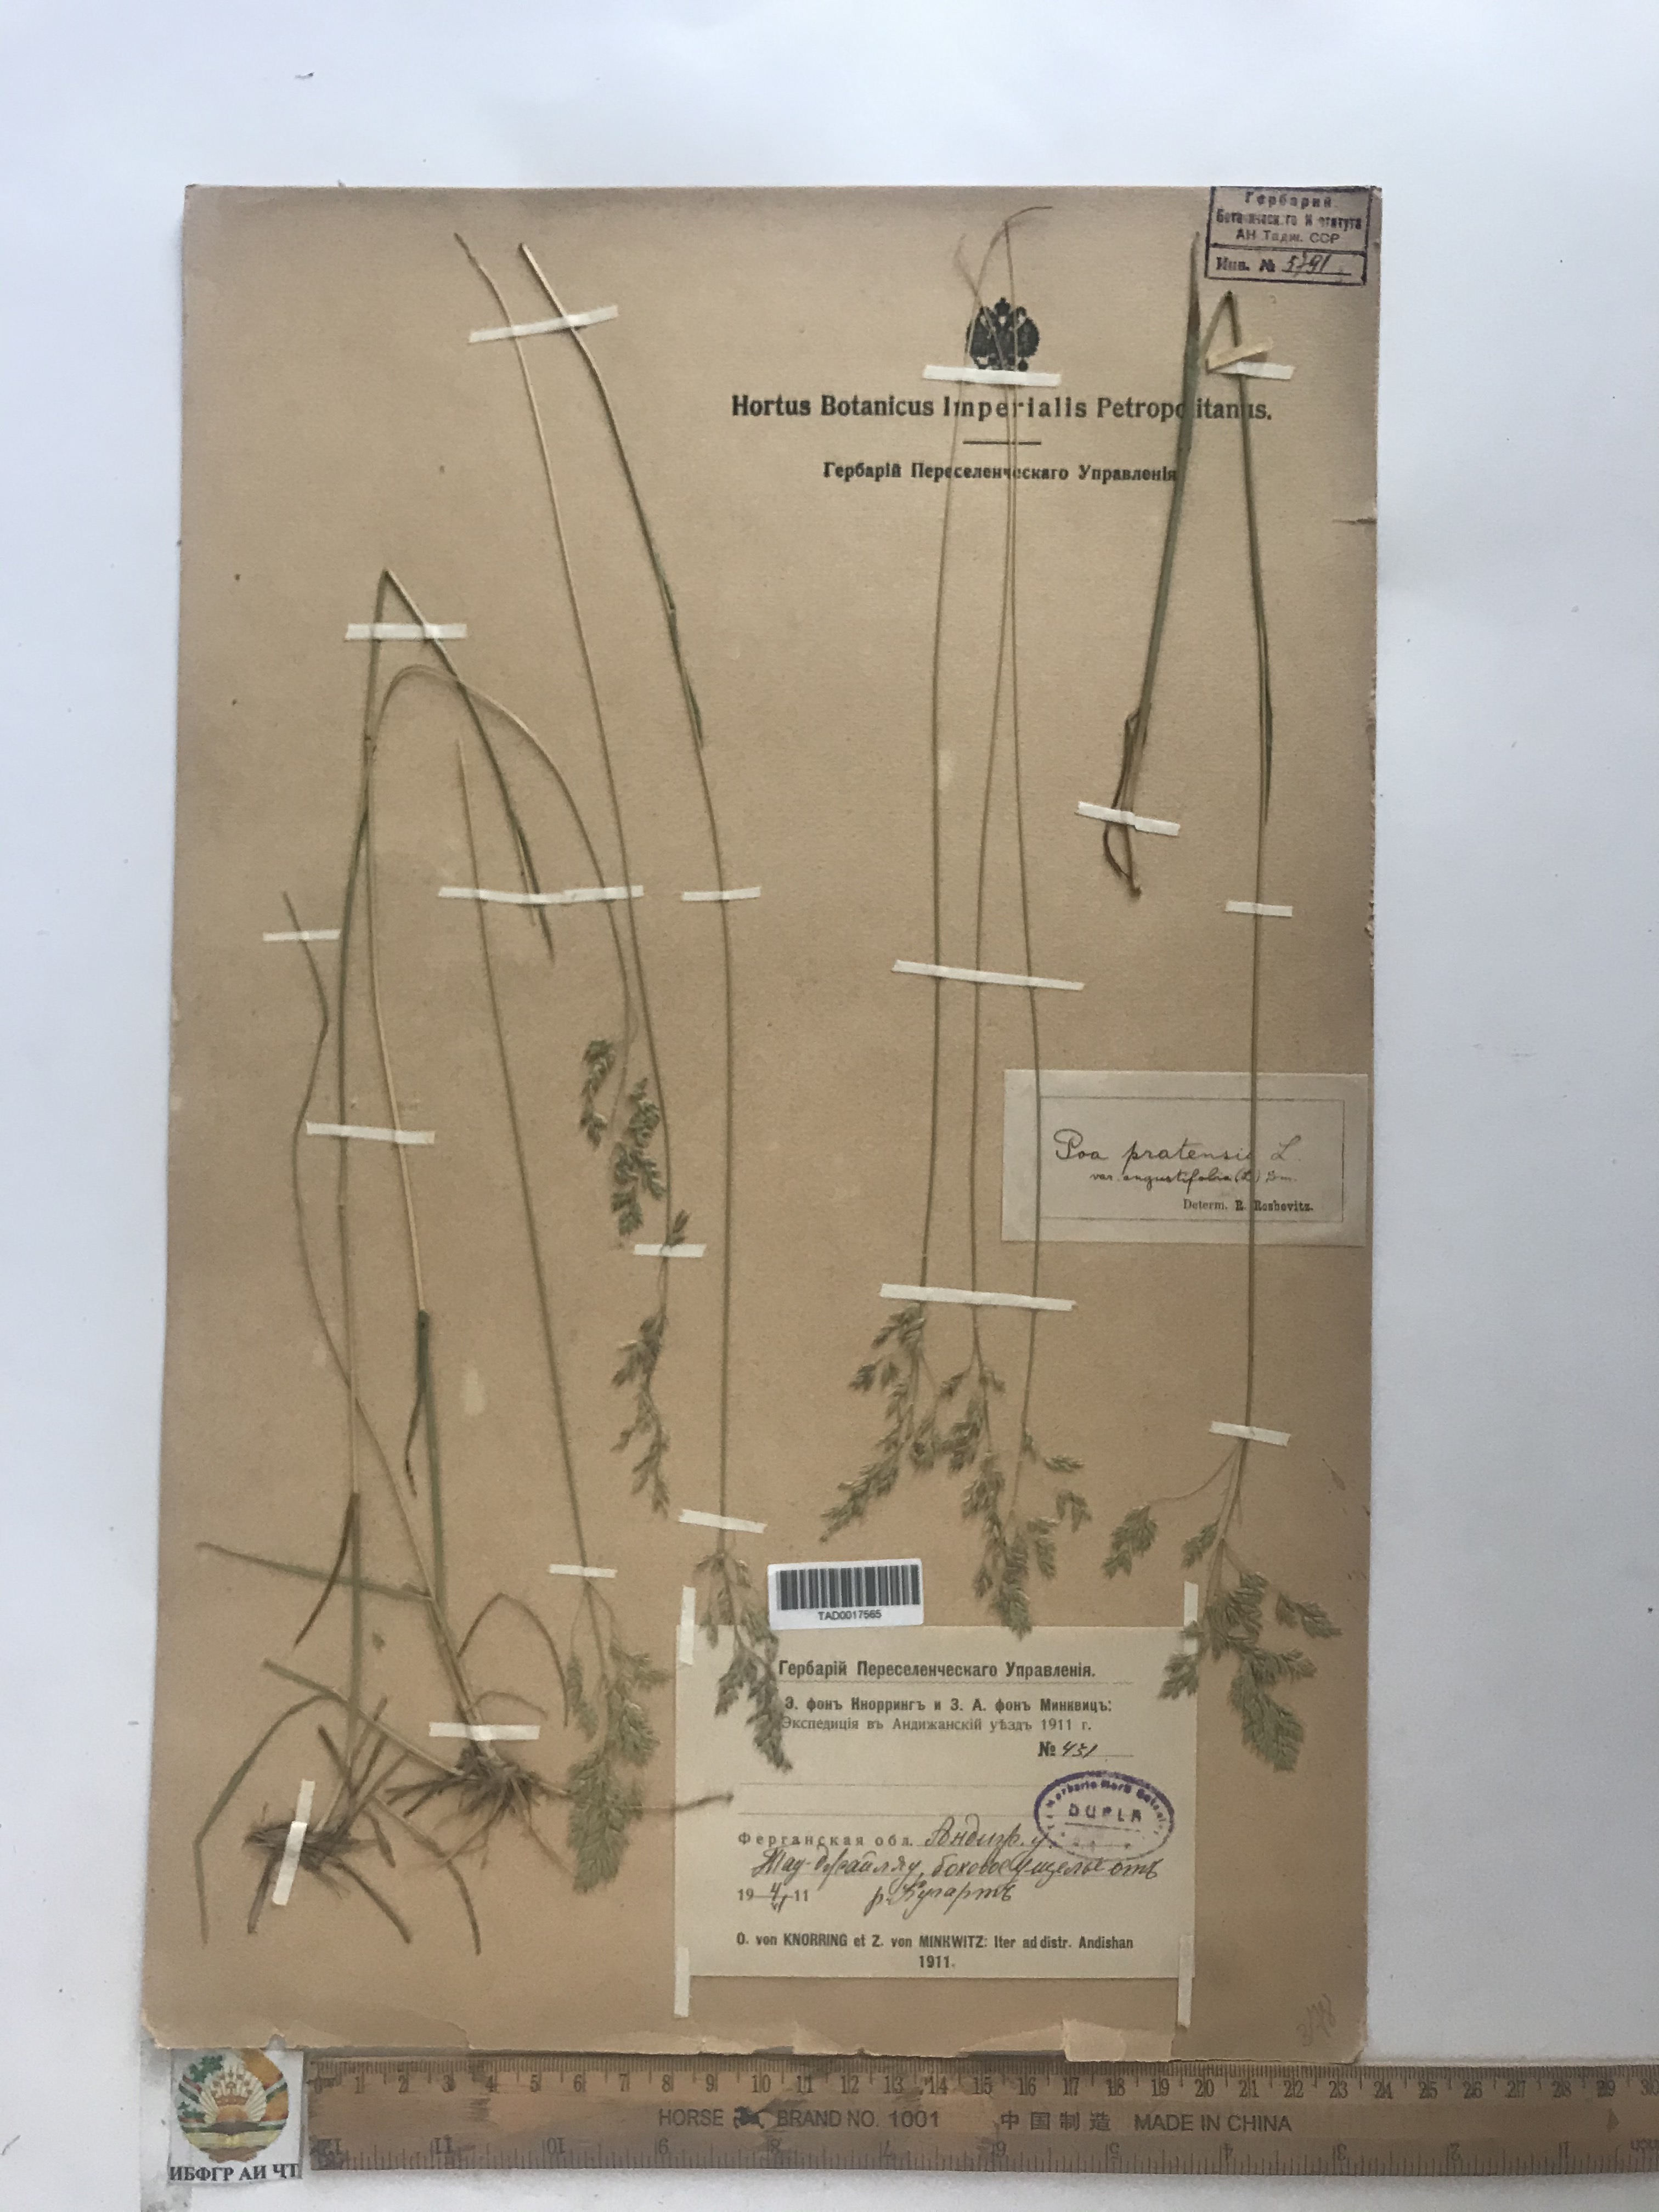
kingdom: Plantae
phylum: Tracheophyta
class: Liliopsida
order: Poales
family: Poaceae
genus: Poa
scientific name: Poa pratensis
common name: Kentucky bluegrass
